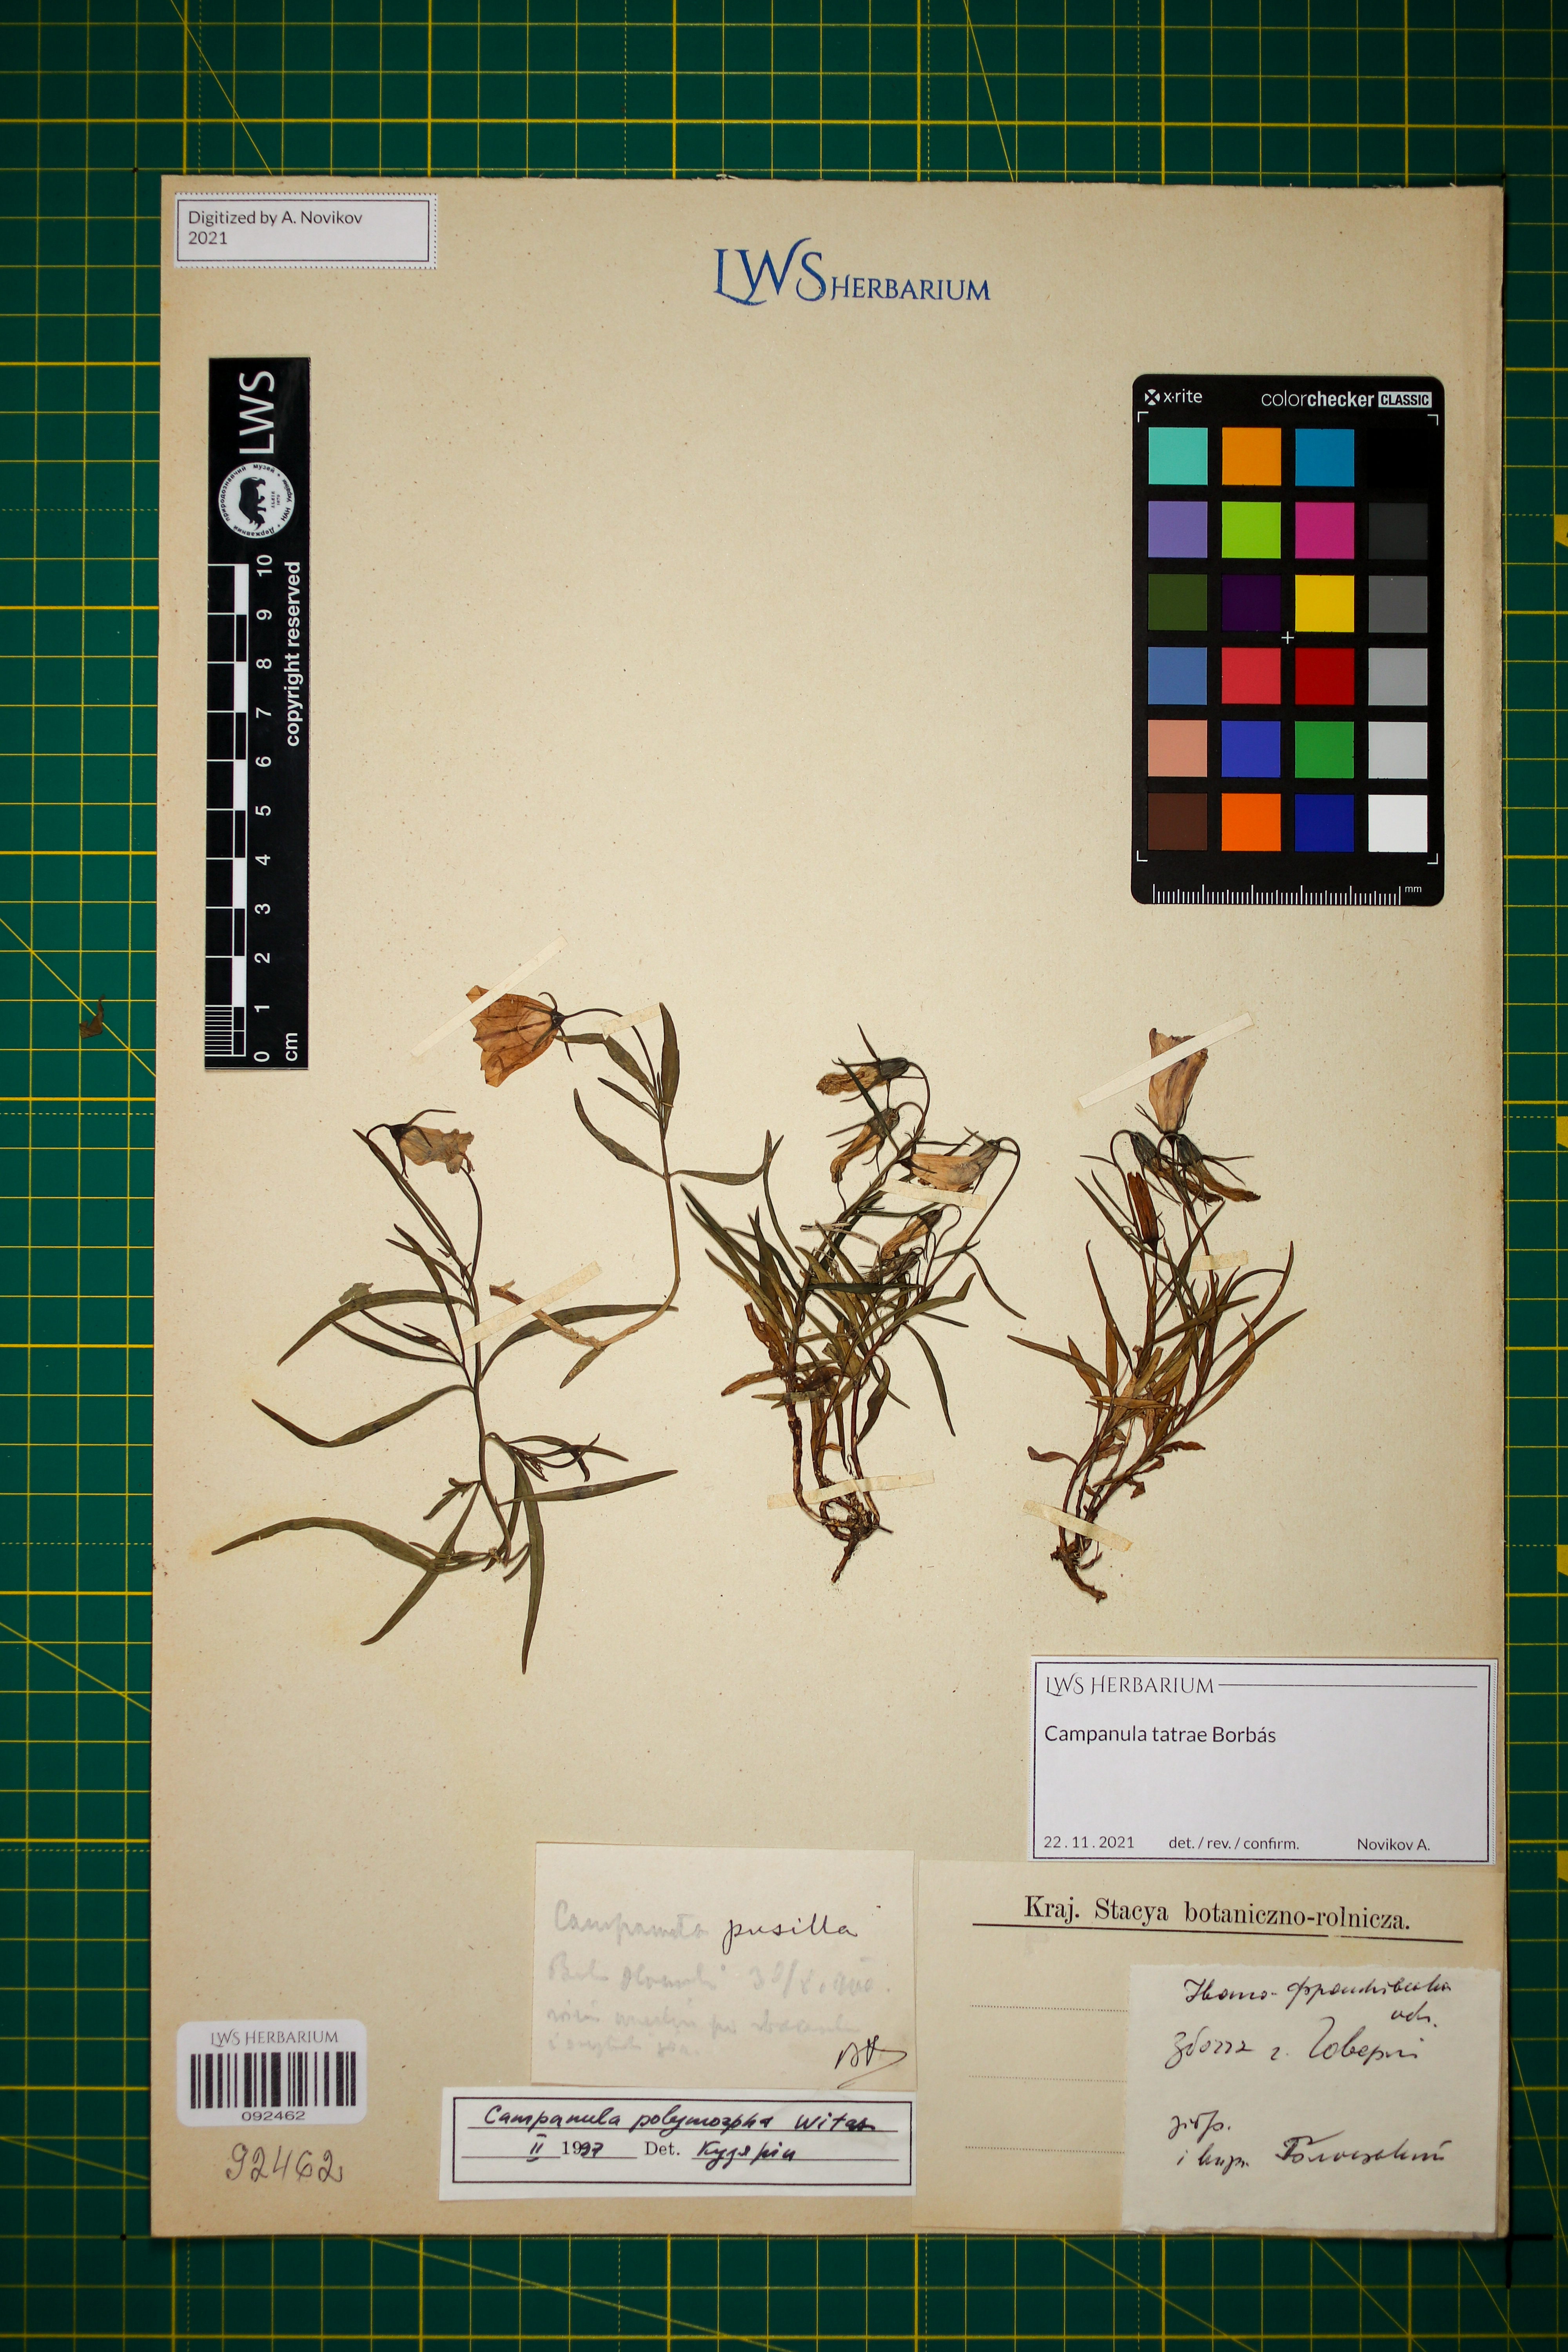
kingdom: Plantae
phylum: Tracheophyta
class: Magnoliopsida
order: Asterales
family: Campanulaceae
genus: Campanula
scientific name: Campanula tatrae
